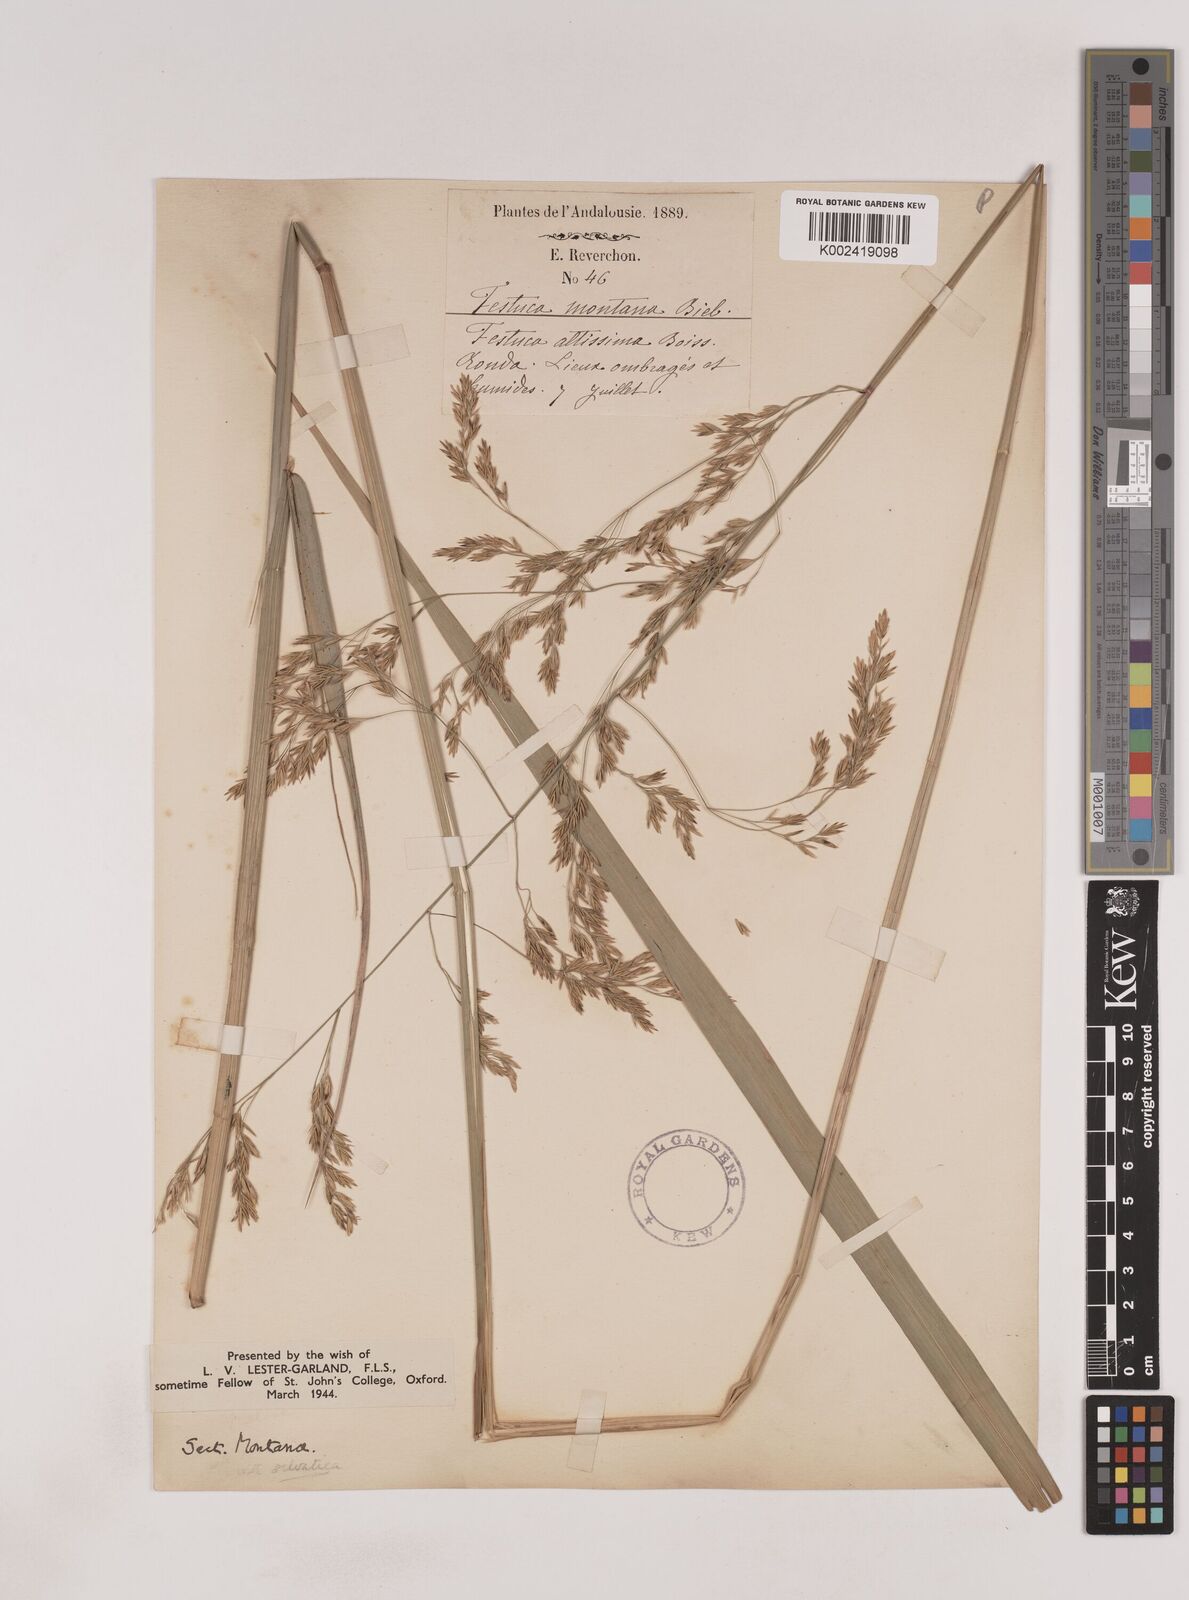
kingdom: Plantae
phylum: Tracheophyta
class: Liliopsida
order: Poales
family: Poaceae
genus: Festuca
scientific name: Festuca drymeja
